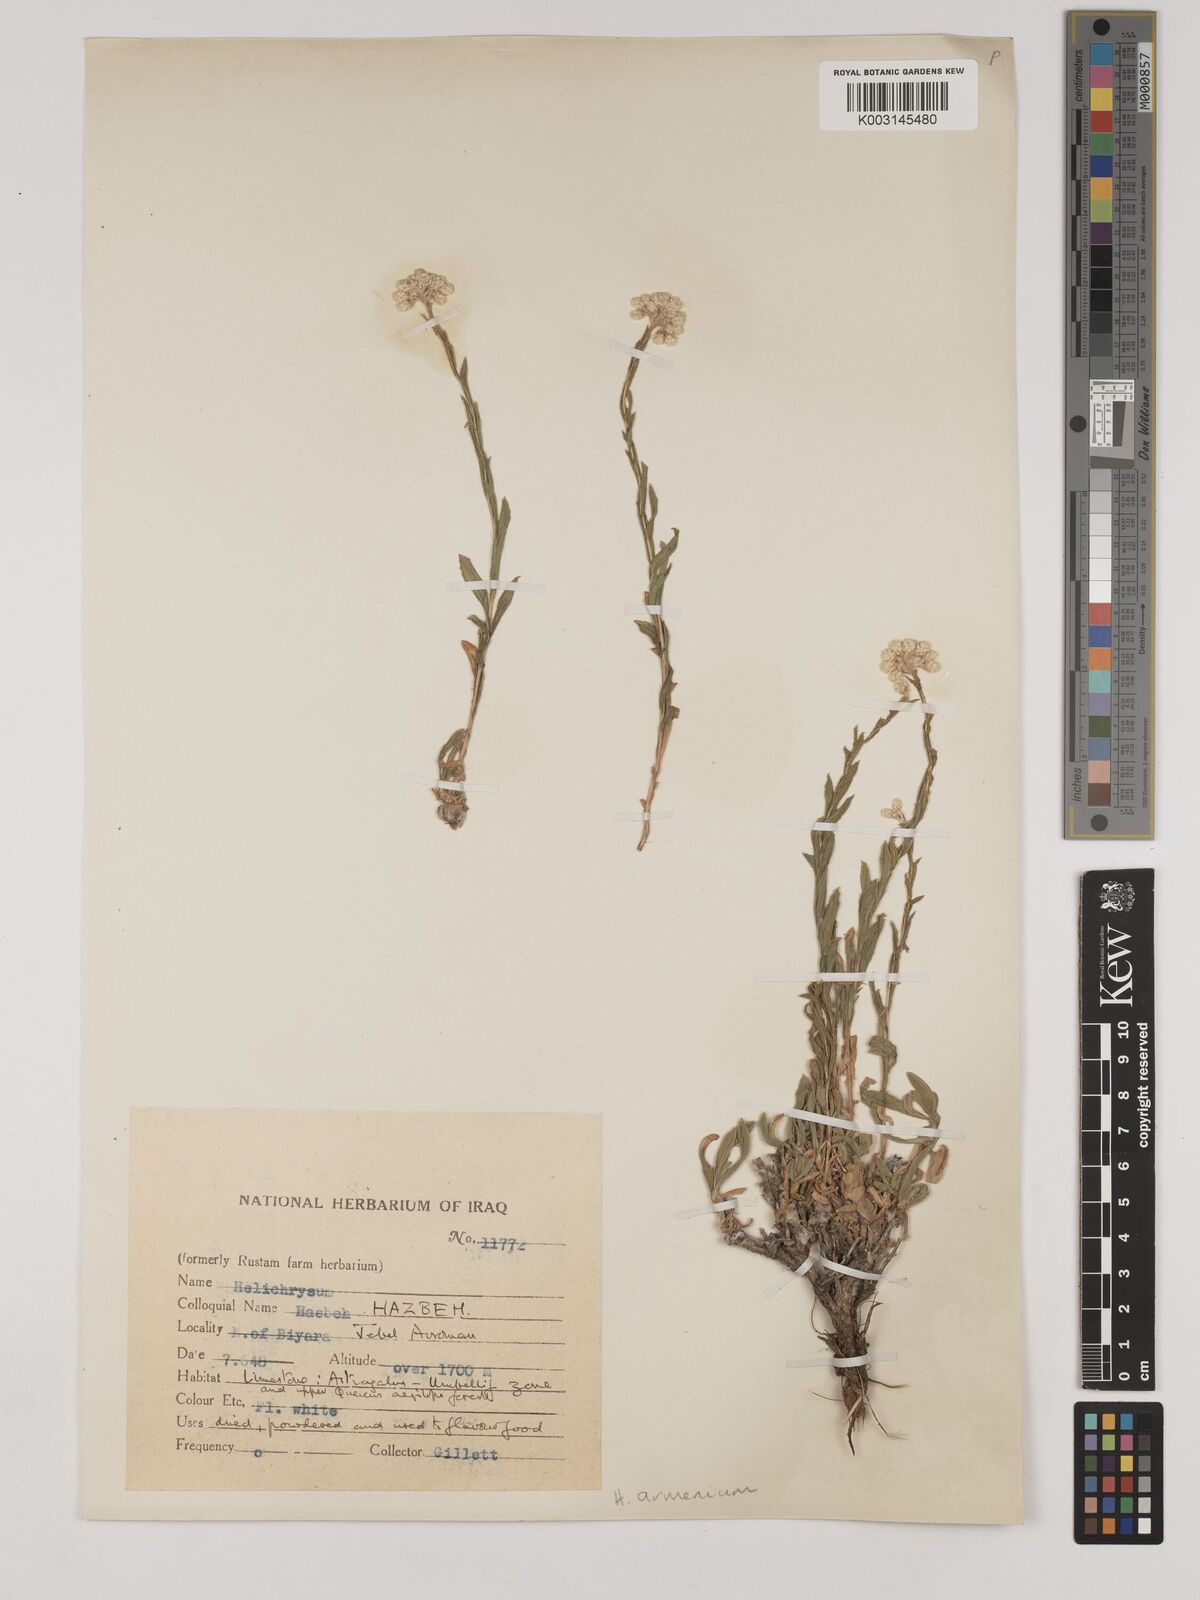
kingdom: Plantae
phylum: Tracheophyta
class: Magnoliopsida
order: Asterales
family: Asteraceae
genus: Helichrysum
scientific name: Helichrysum armenium
